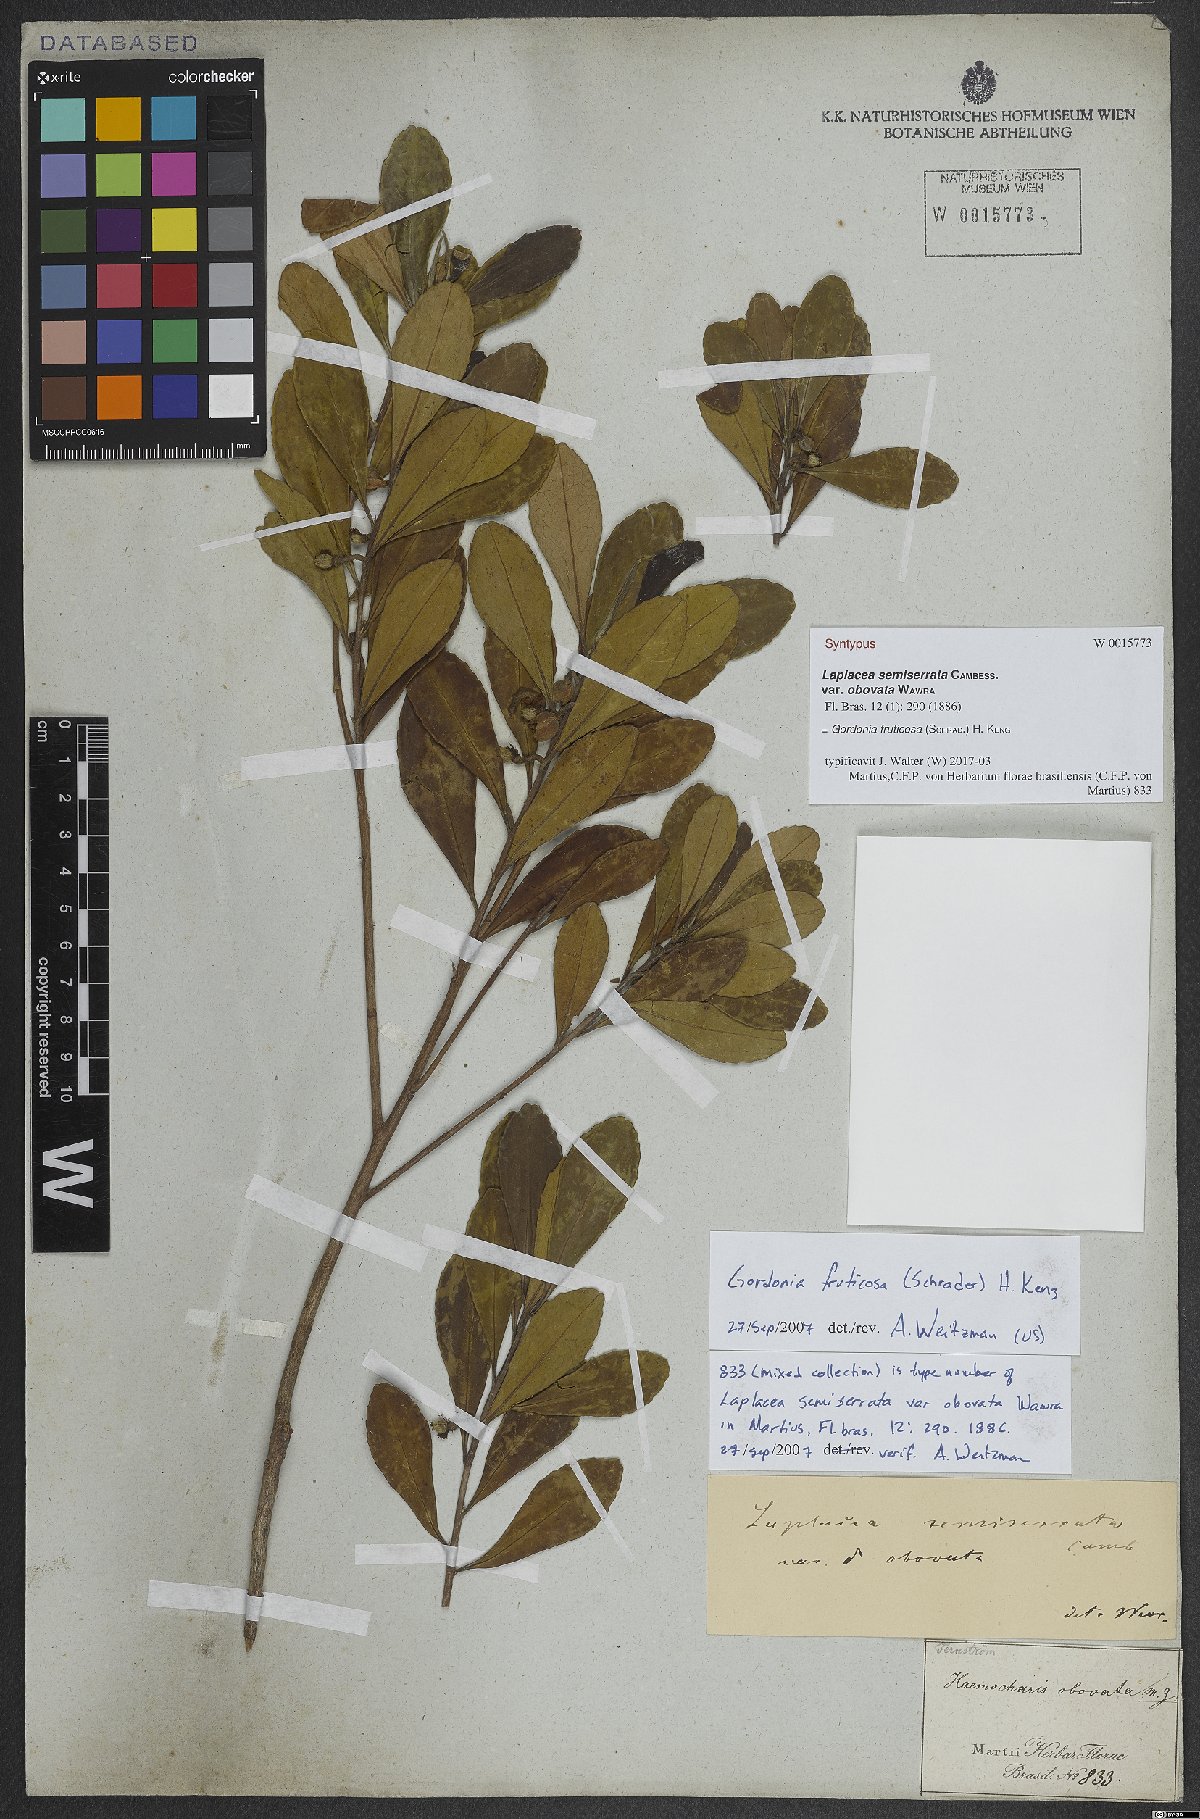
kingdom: Plantae
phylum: Tracheophyta
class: Magnoliopsida
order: Ericales
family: Theaceae
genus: Gordonia
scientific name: Gordonia fruticosa
